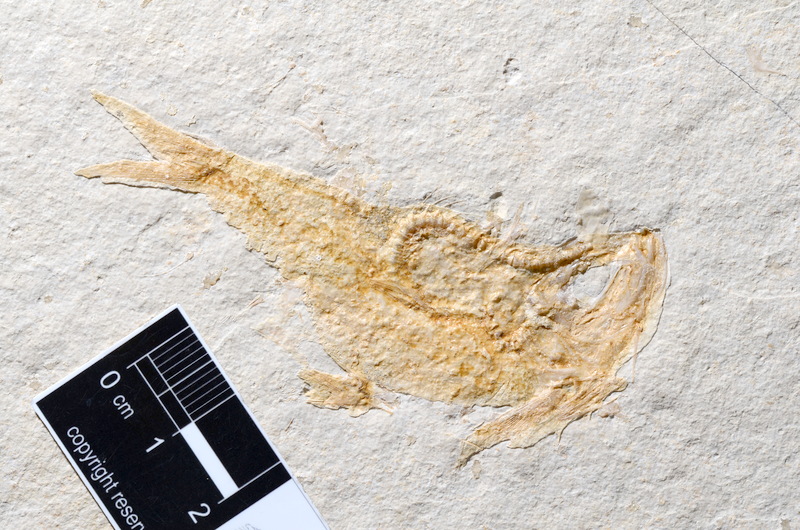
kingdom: Animalia
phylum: Chordata
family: Ascalaboidae
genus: Tharsis
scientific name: Tharsis dubius
